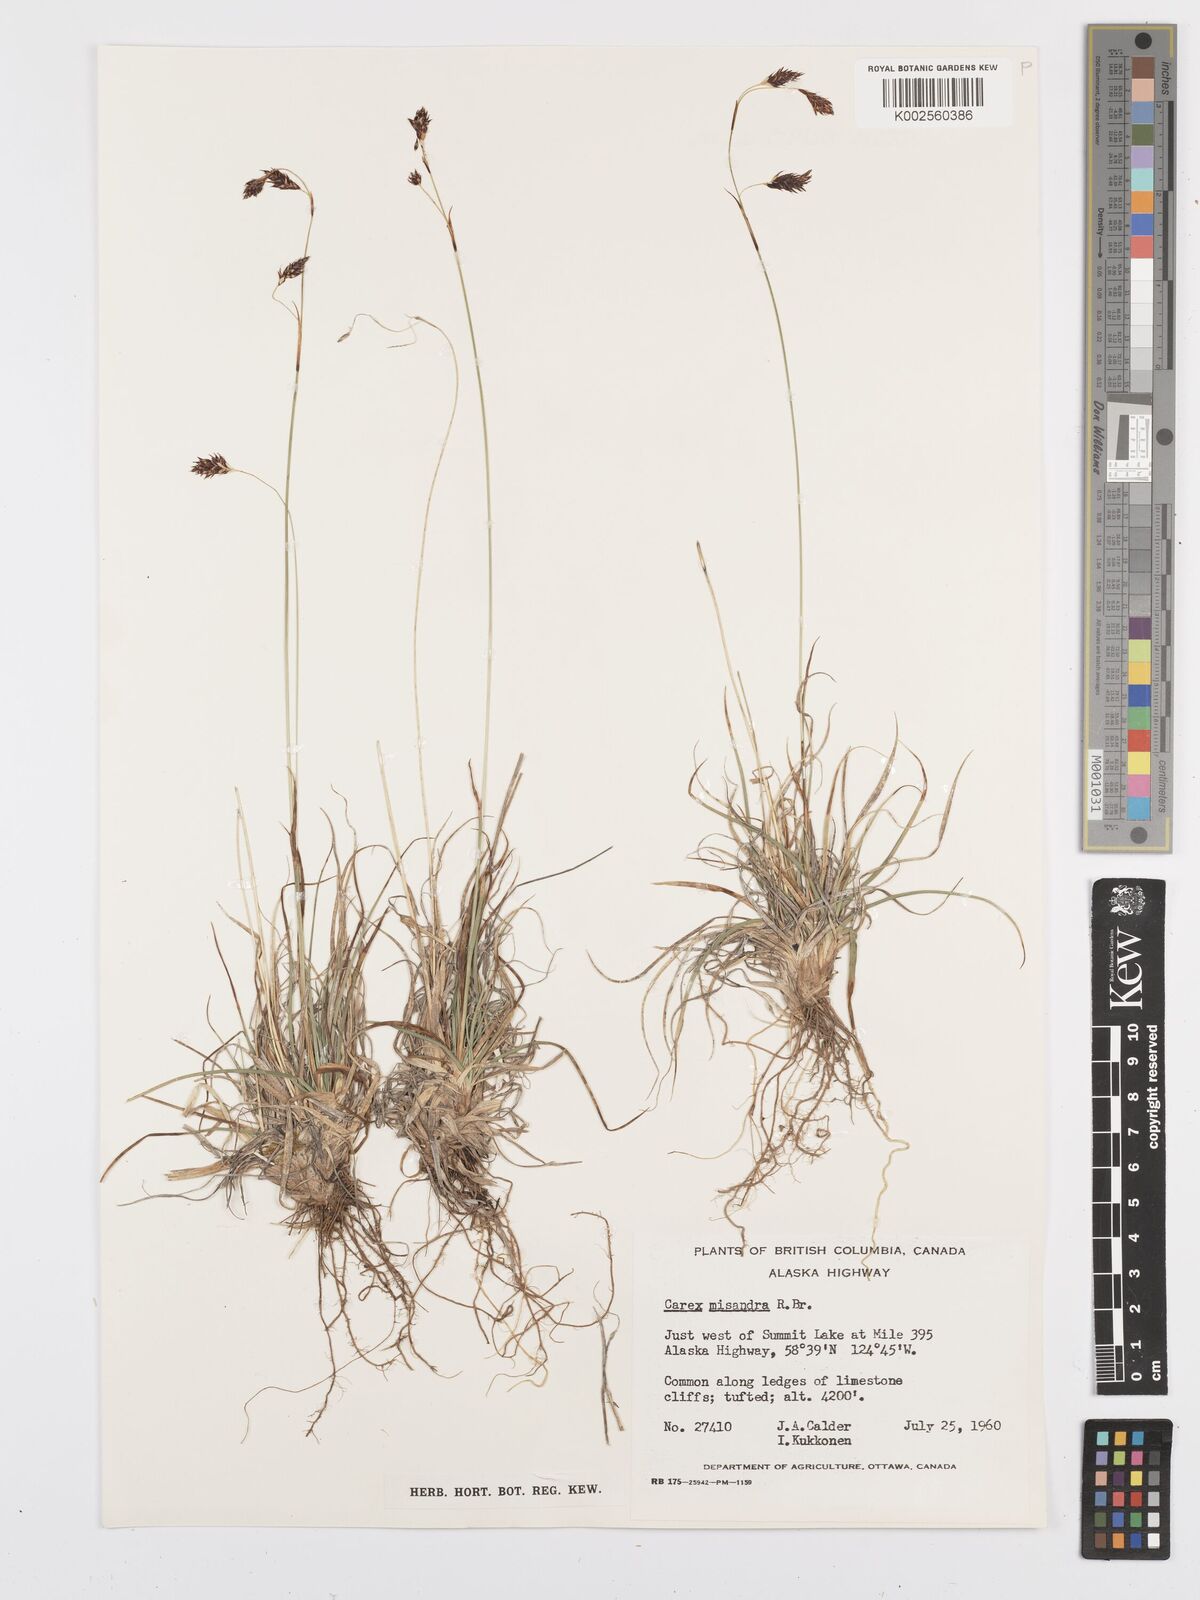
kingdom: Plantae
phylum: Tracheophyta
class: Liliopsida
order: Poales
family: Cyperaceae
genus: Carex
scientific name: Carex fuliginosa
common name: Few-flowered sedge
